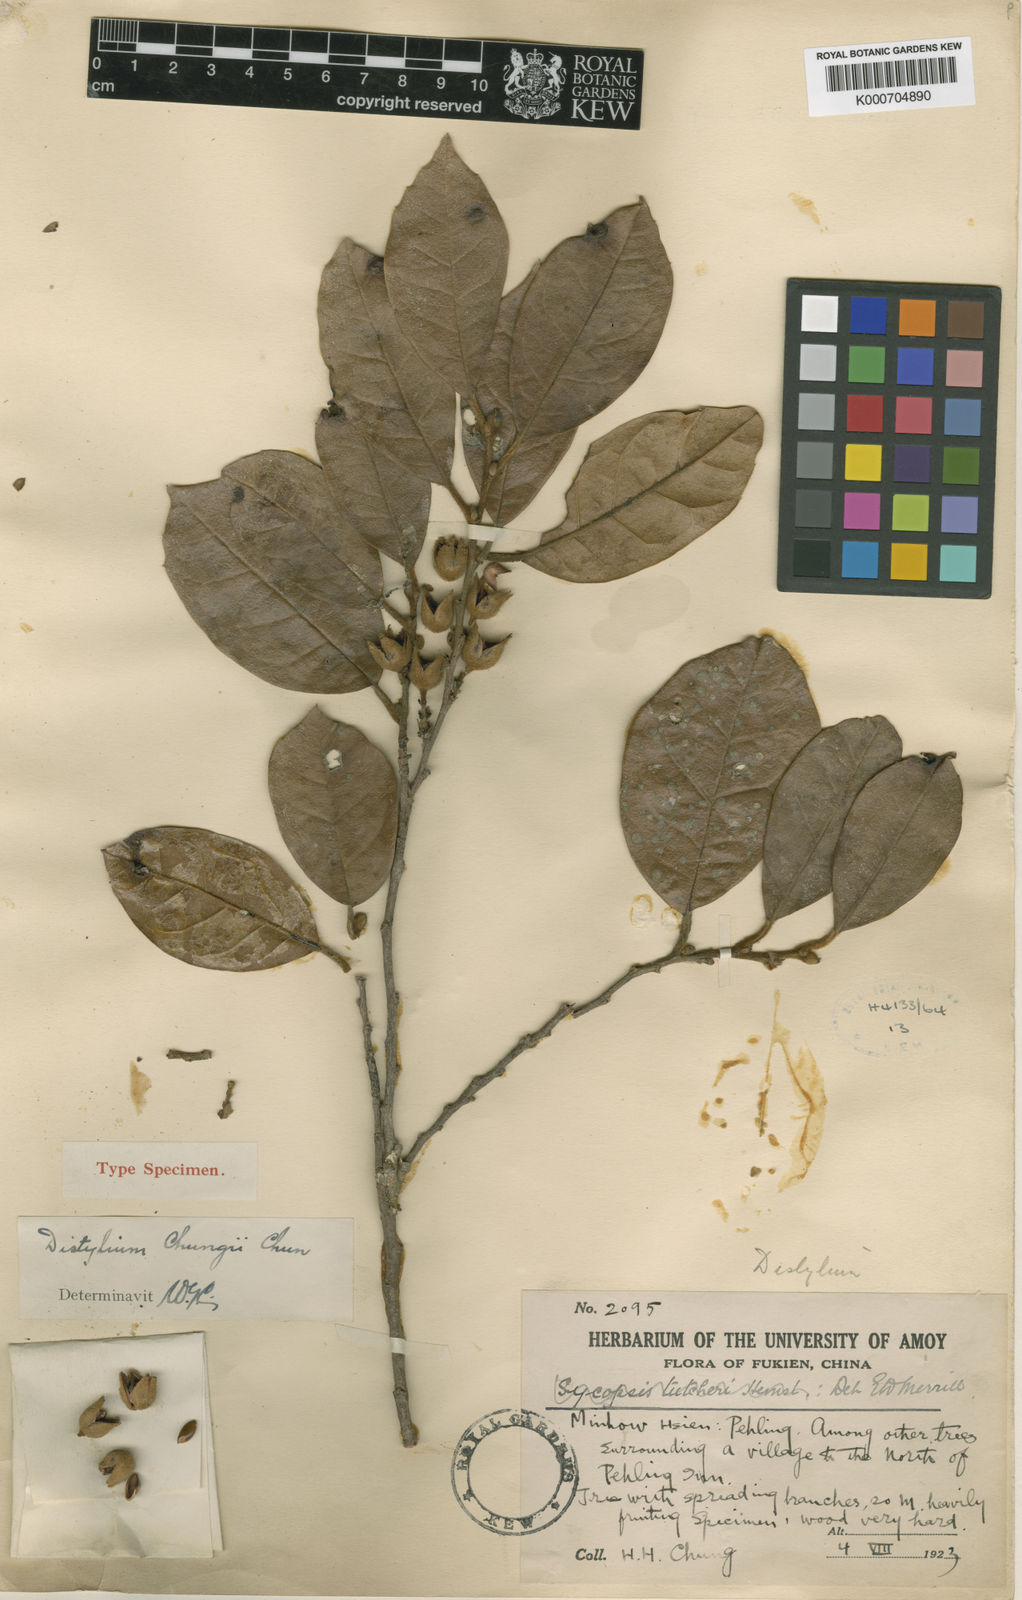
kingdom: Plantae
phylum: Tracheophyta
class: Magnoliopsida
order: Saxifragales
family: Hamamelidaceae
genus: Distylium
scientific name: Distylium chungii
